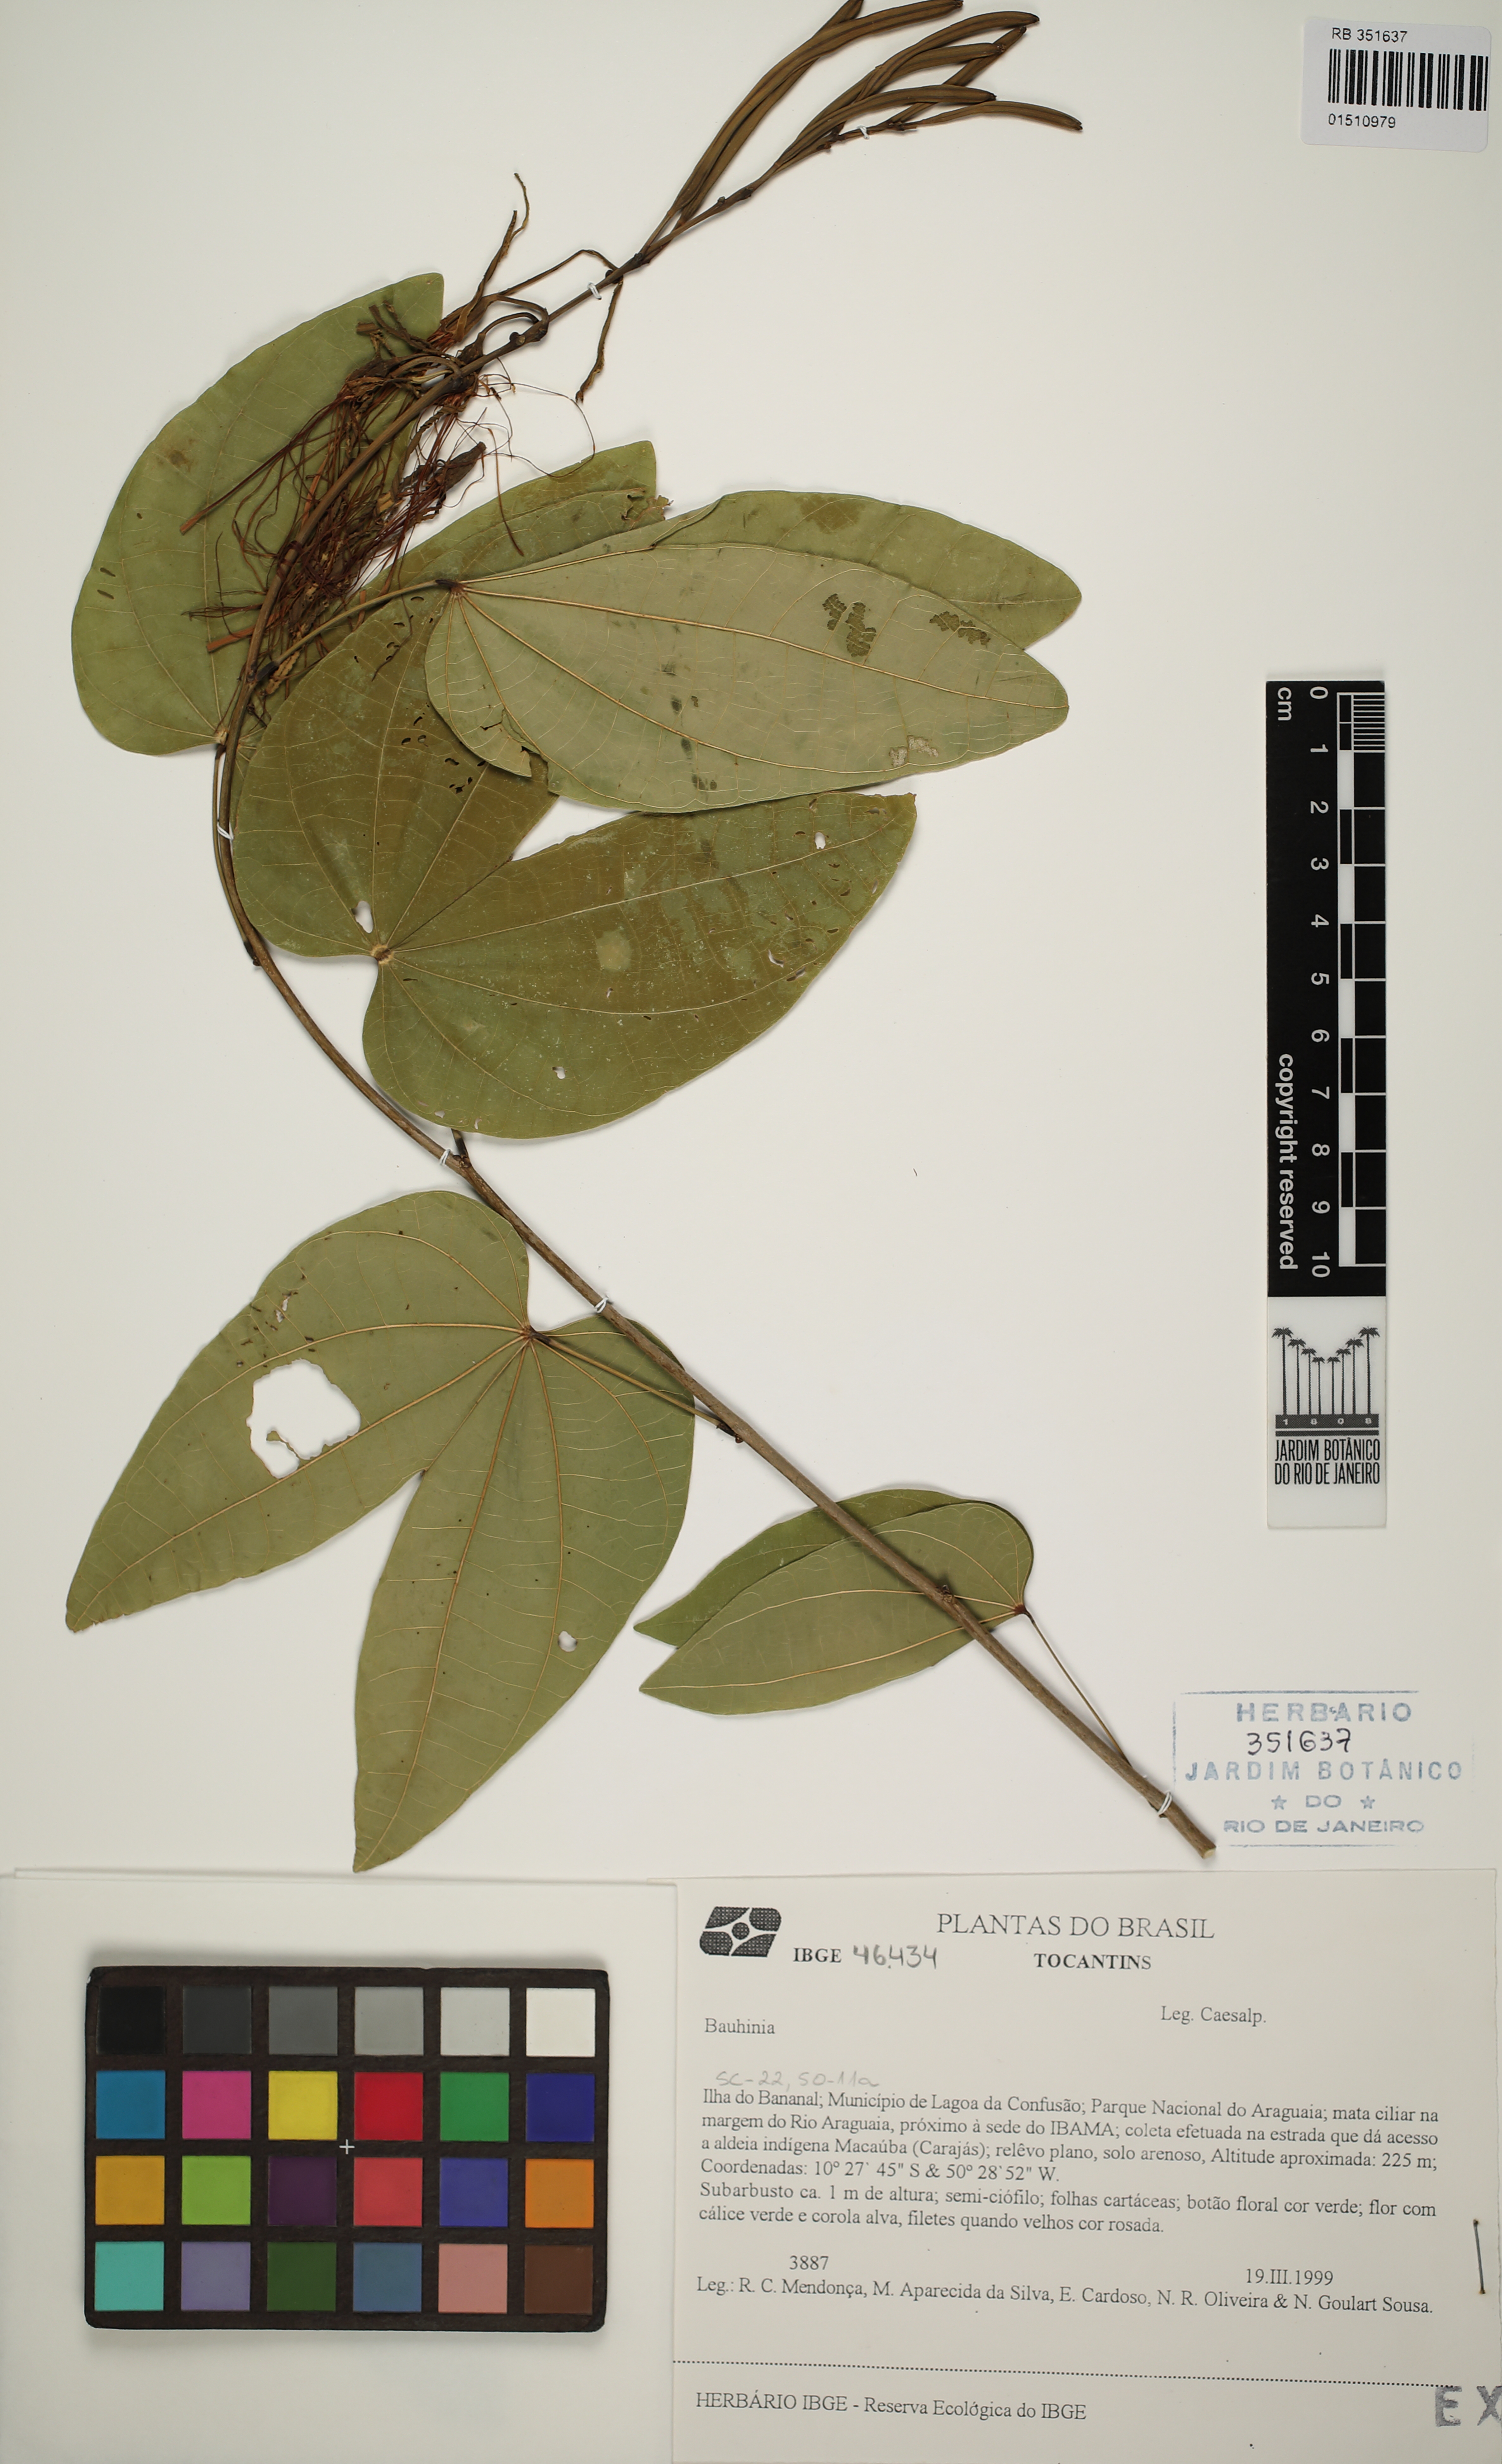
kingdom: Plantae
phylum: Tracheophyta
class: Magnoliopsida
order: Fabales
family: Fabaceae
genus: Bauhinia
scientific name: Bauhinia
